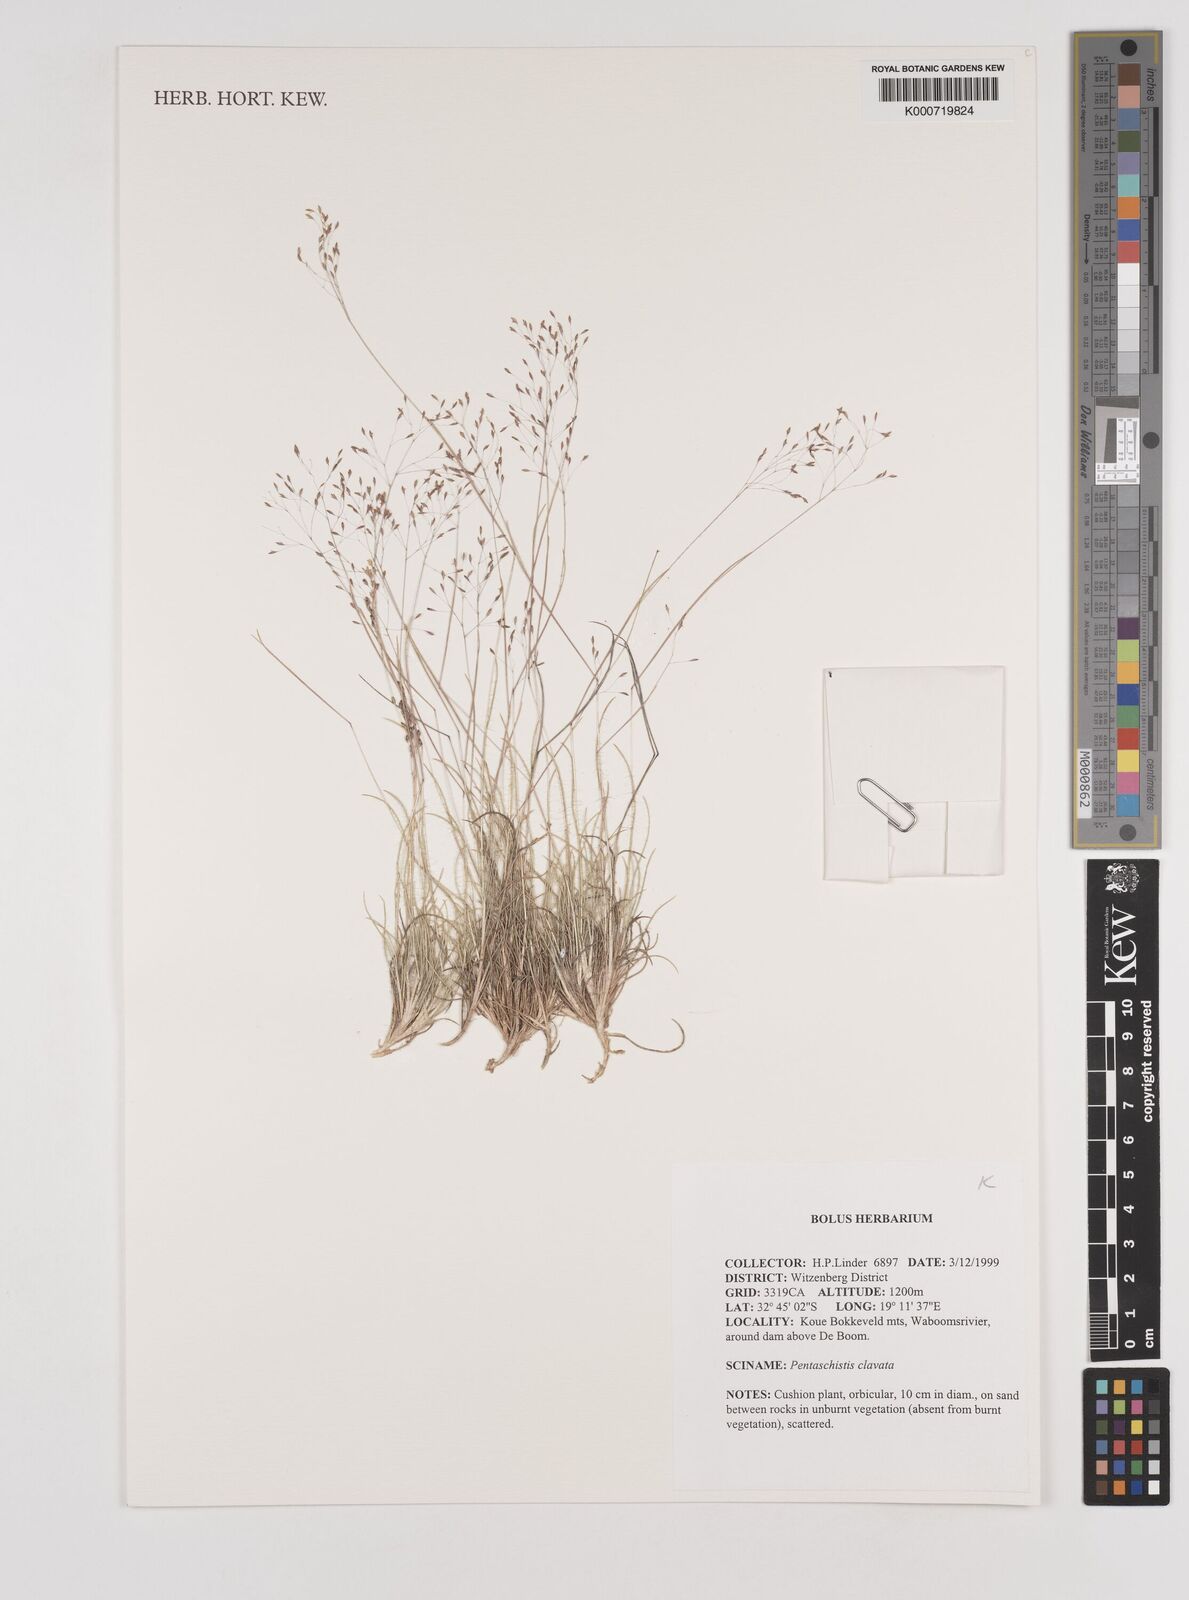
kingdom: Plantae
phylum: Tracheophyta
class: Liliopsida
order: Poales
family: Poaceae
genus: Pentameris
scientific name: Pentameris clavata
